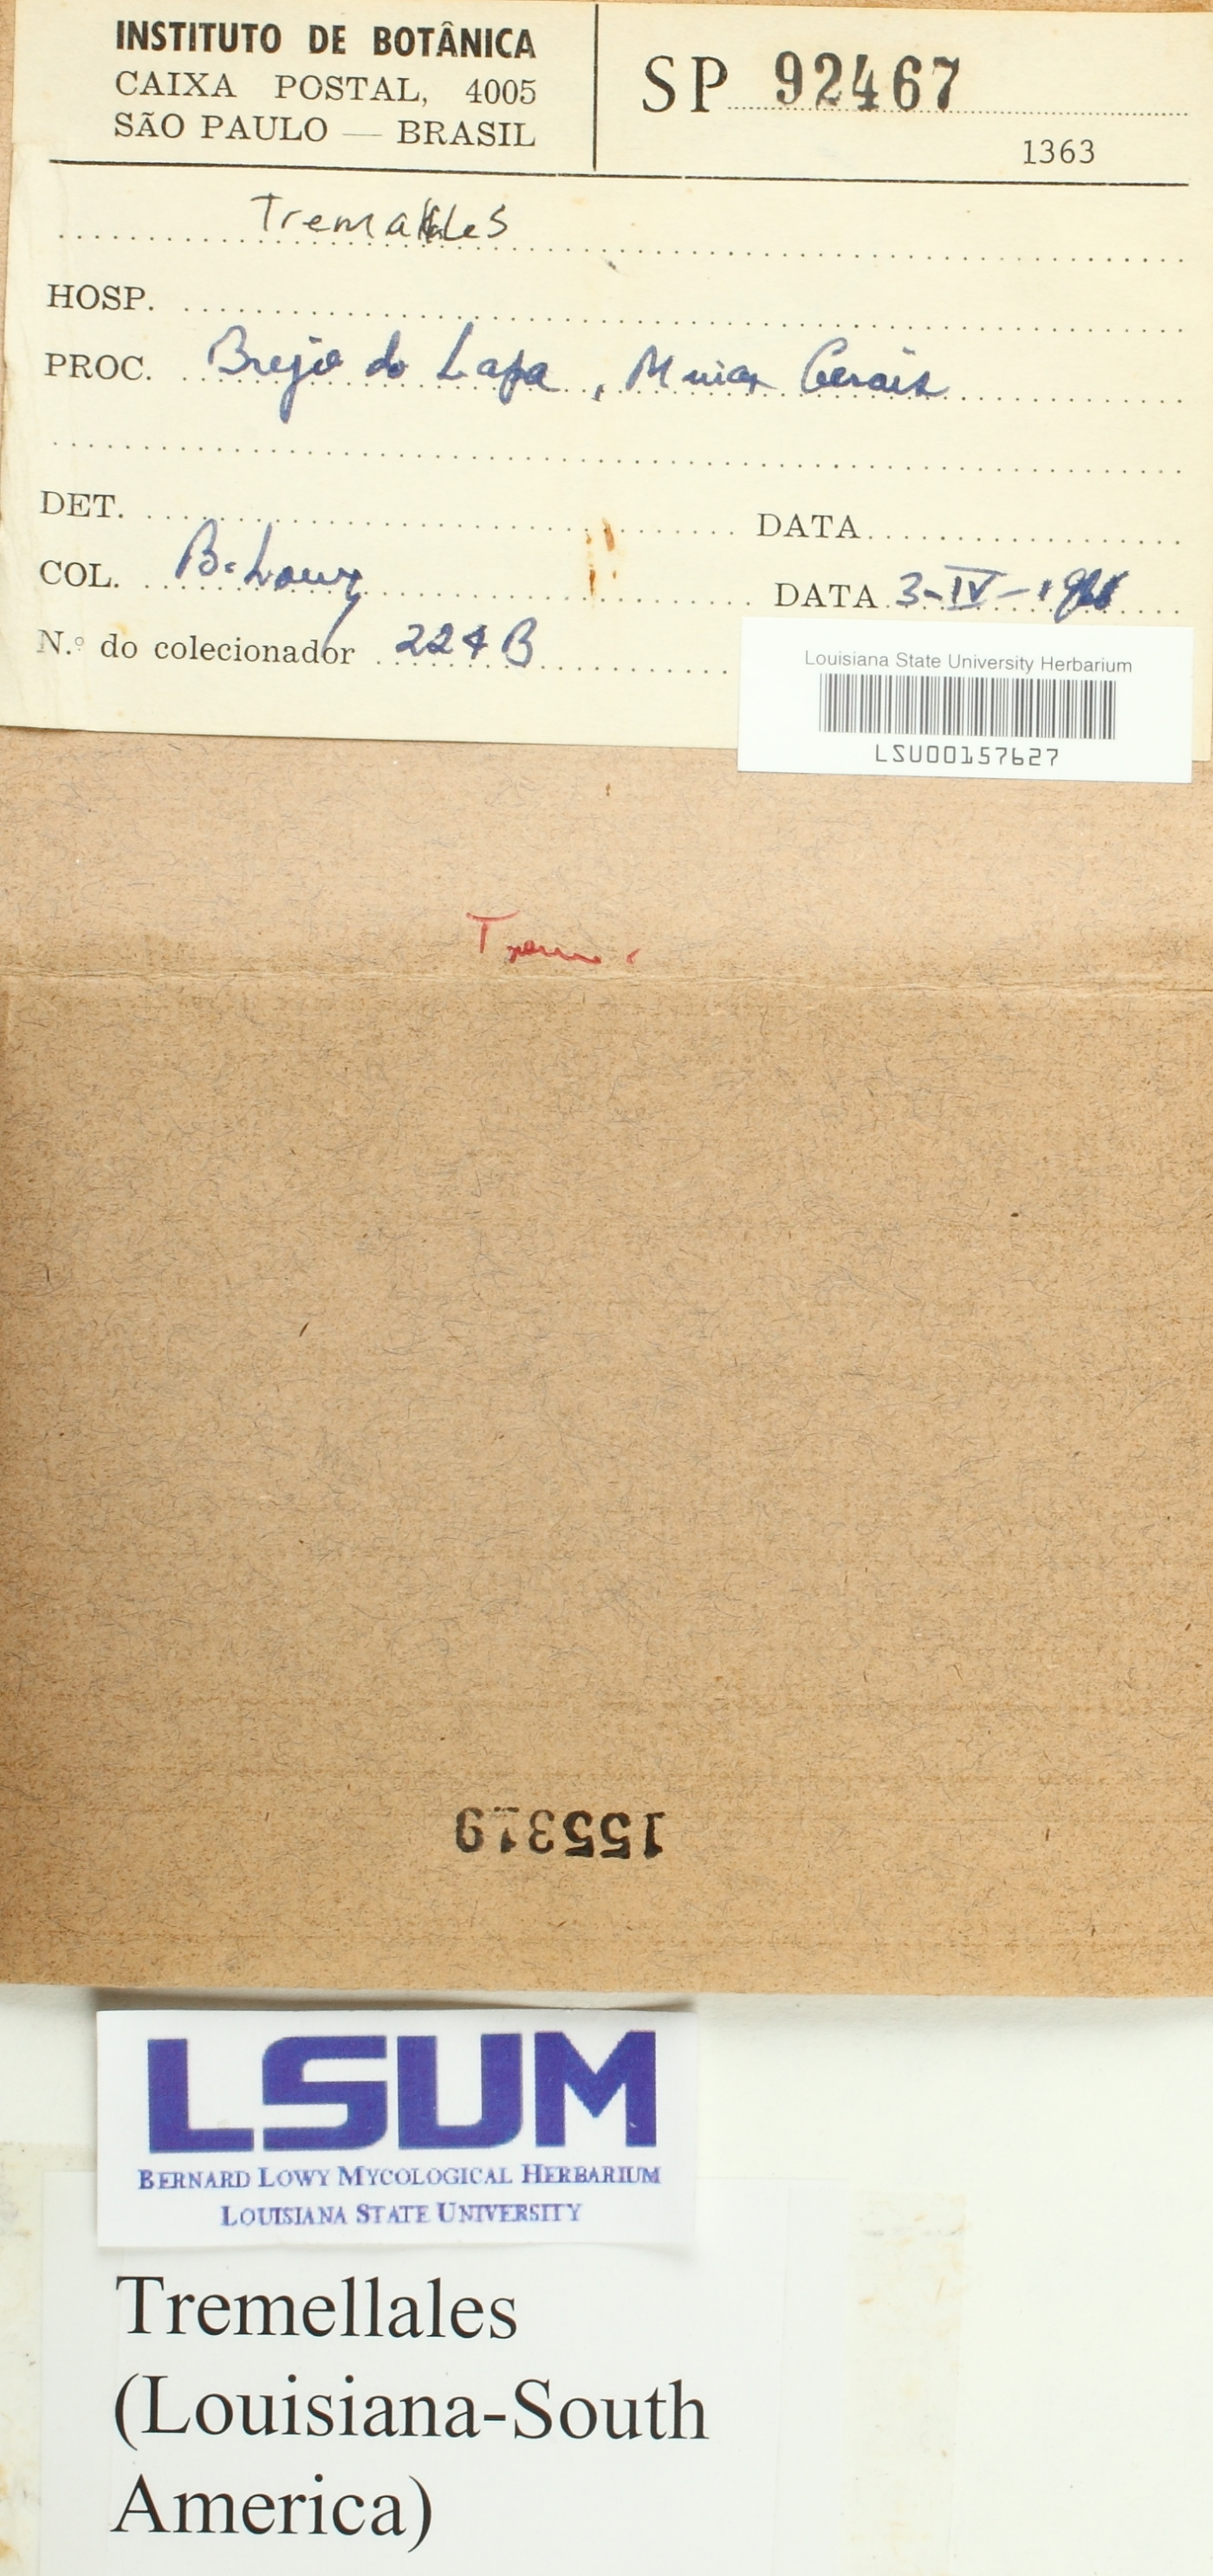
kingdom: Fungi
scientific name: Fungi
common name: Fungi
